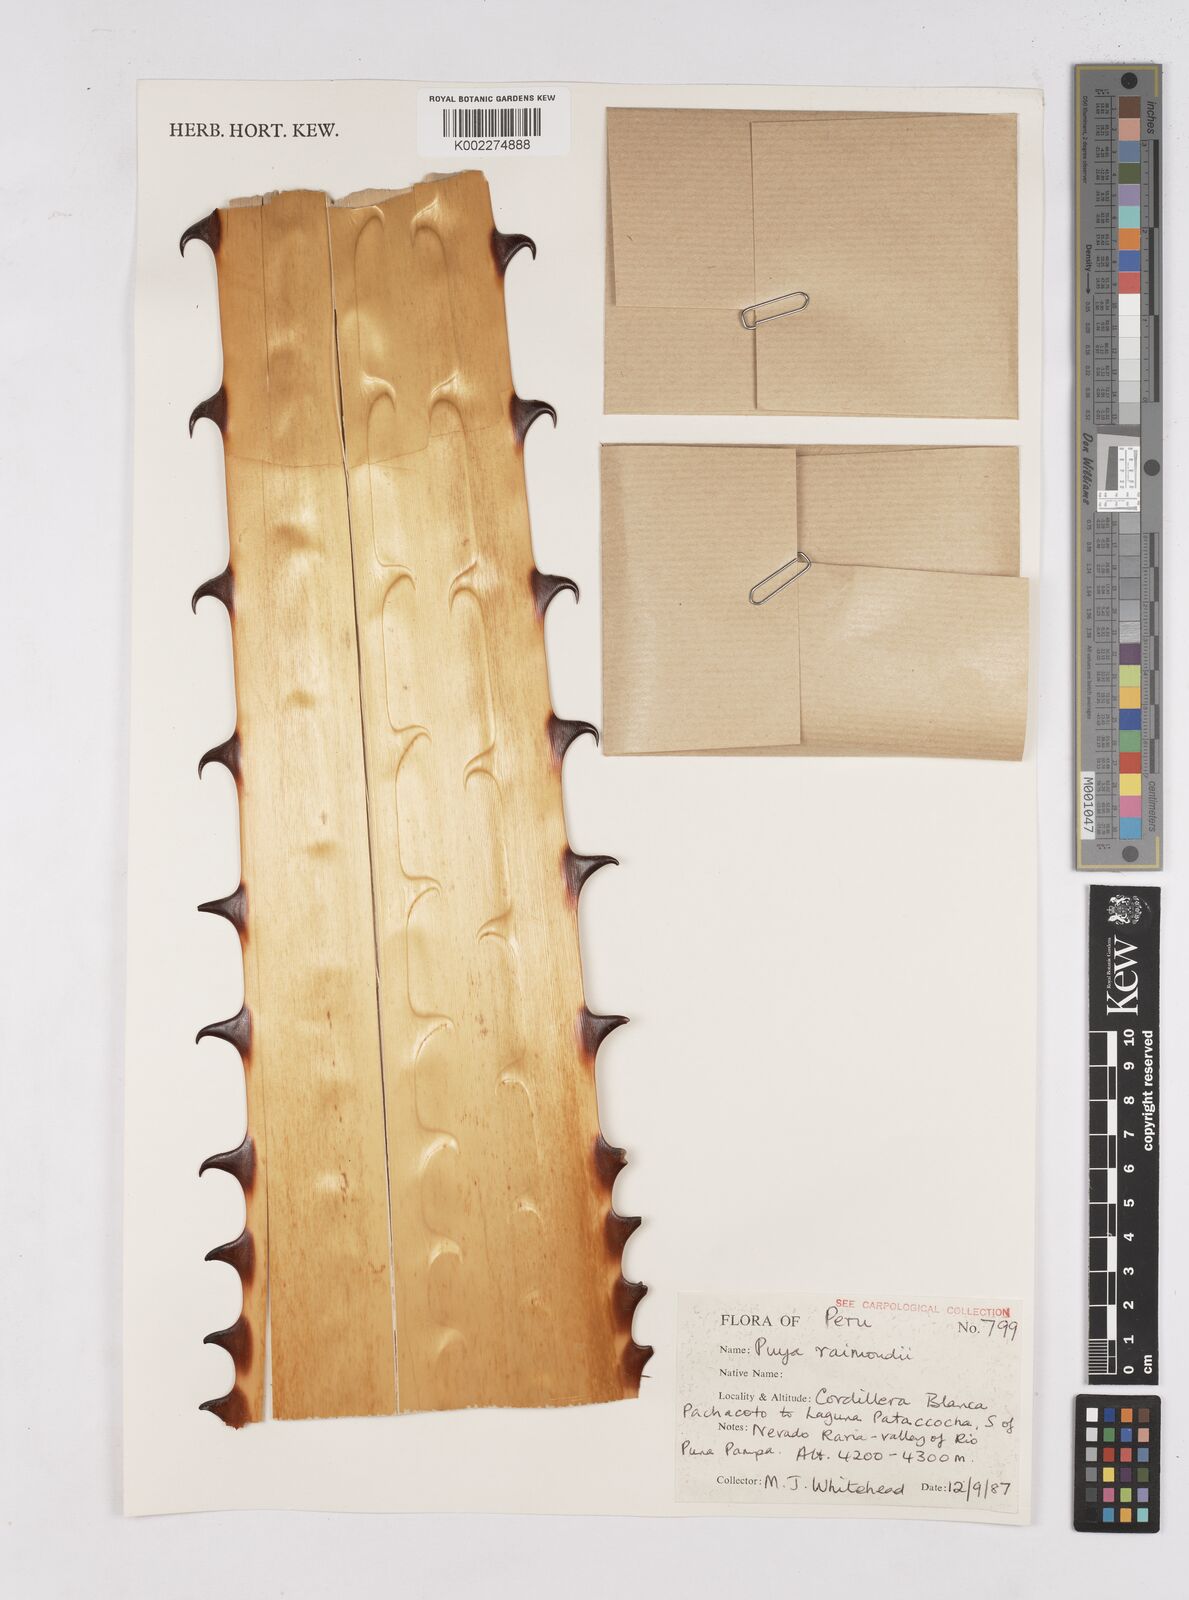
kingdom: Plantae
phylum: Tracheophyta
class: Liliopsida
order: Poales
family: Bromeliaceae
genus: Puya
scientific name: Puya raimondii
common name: Queen of the andes
